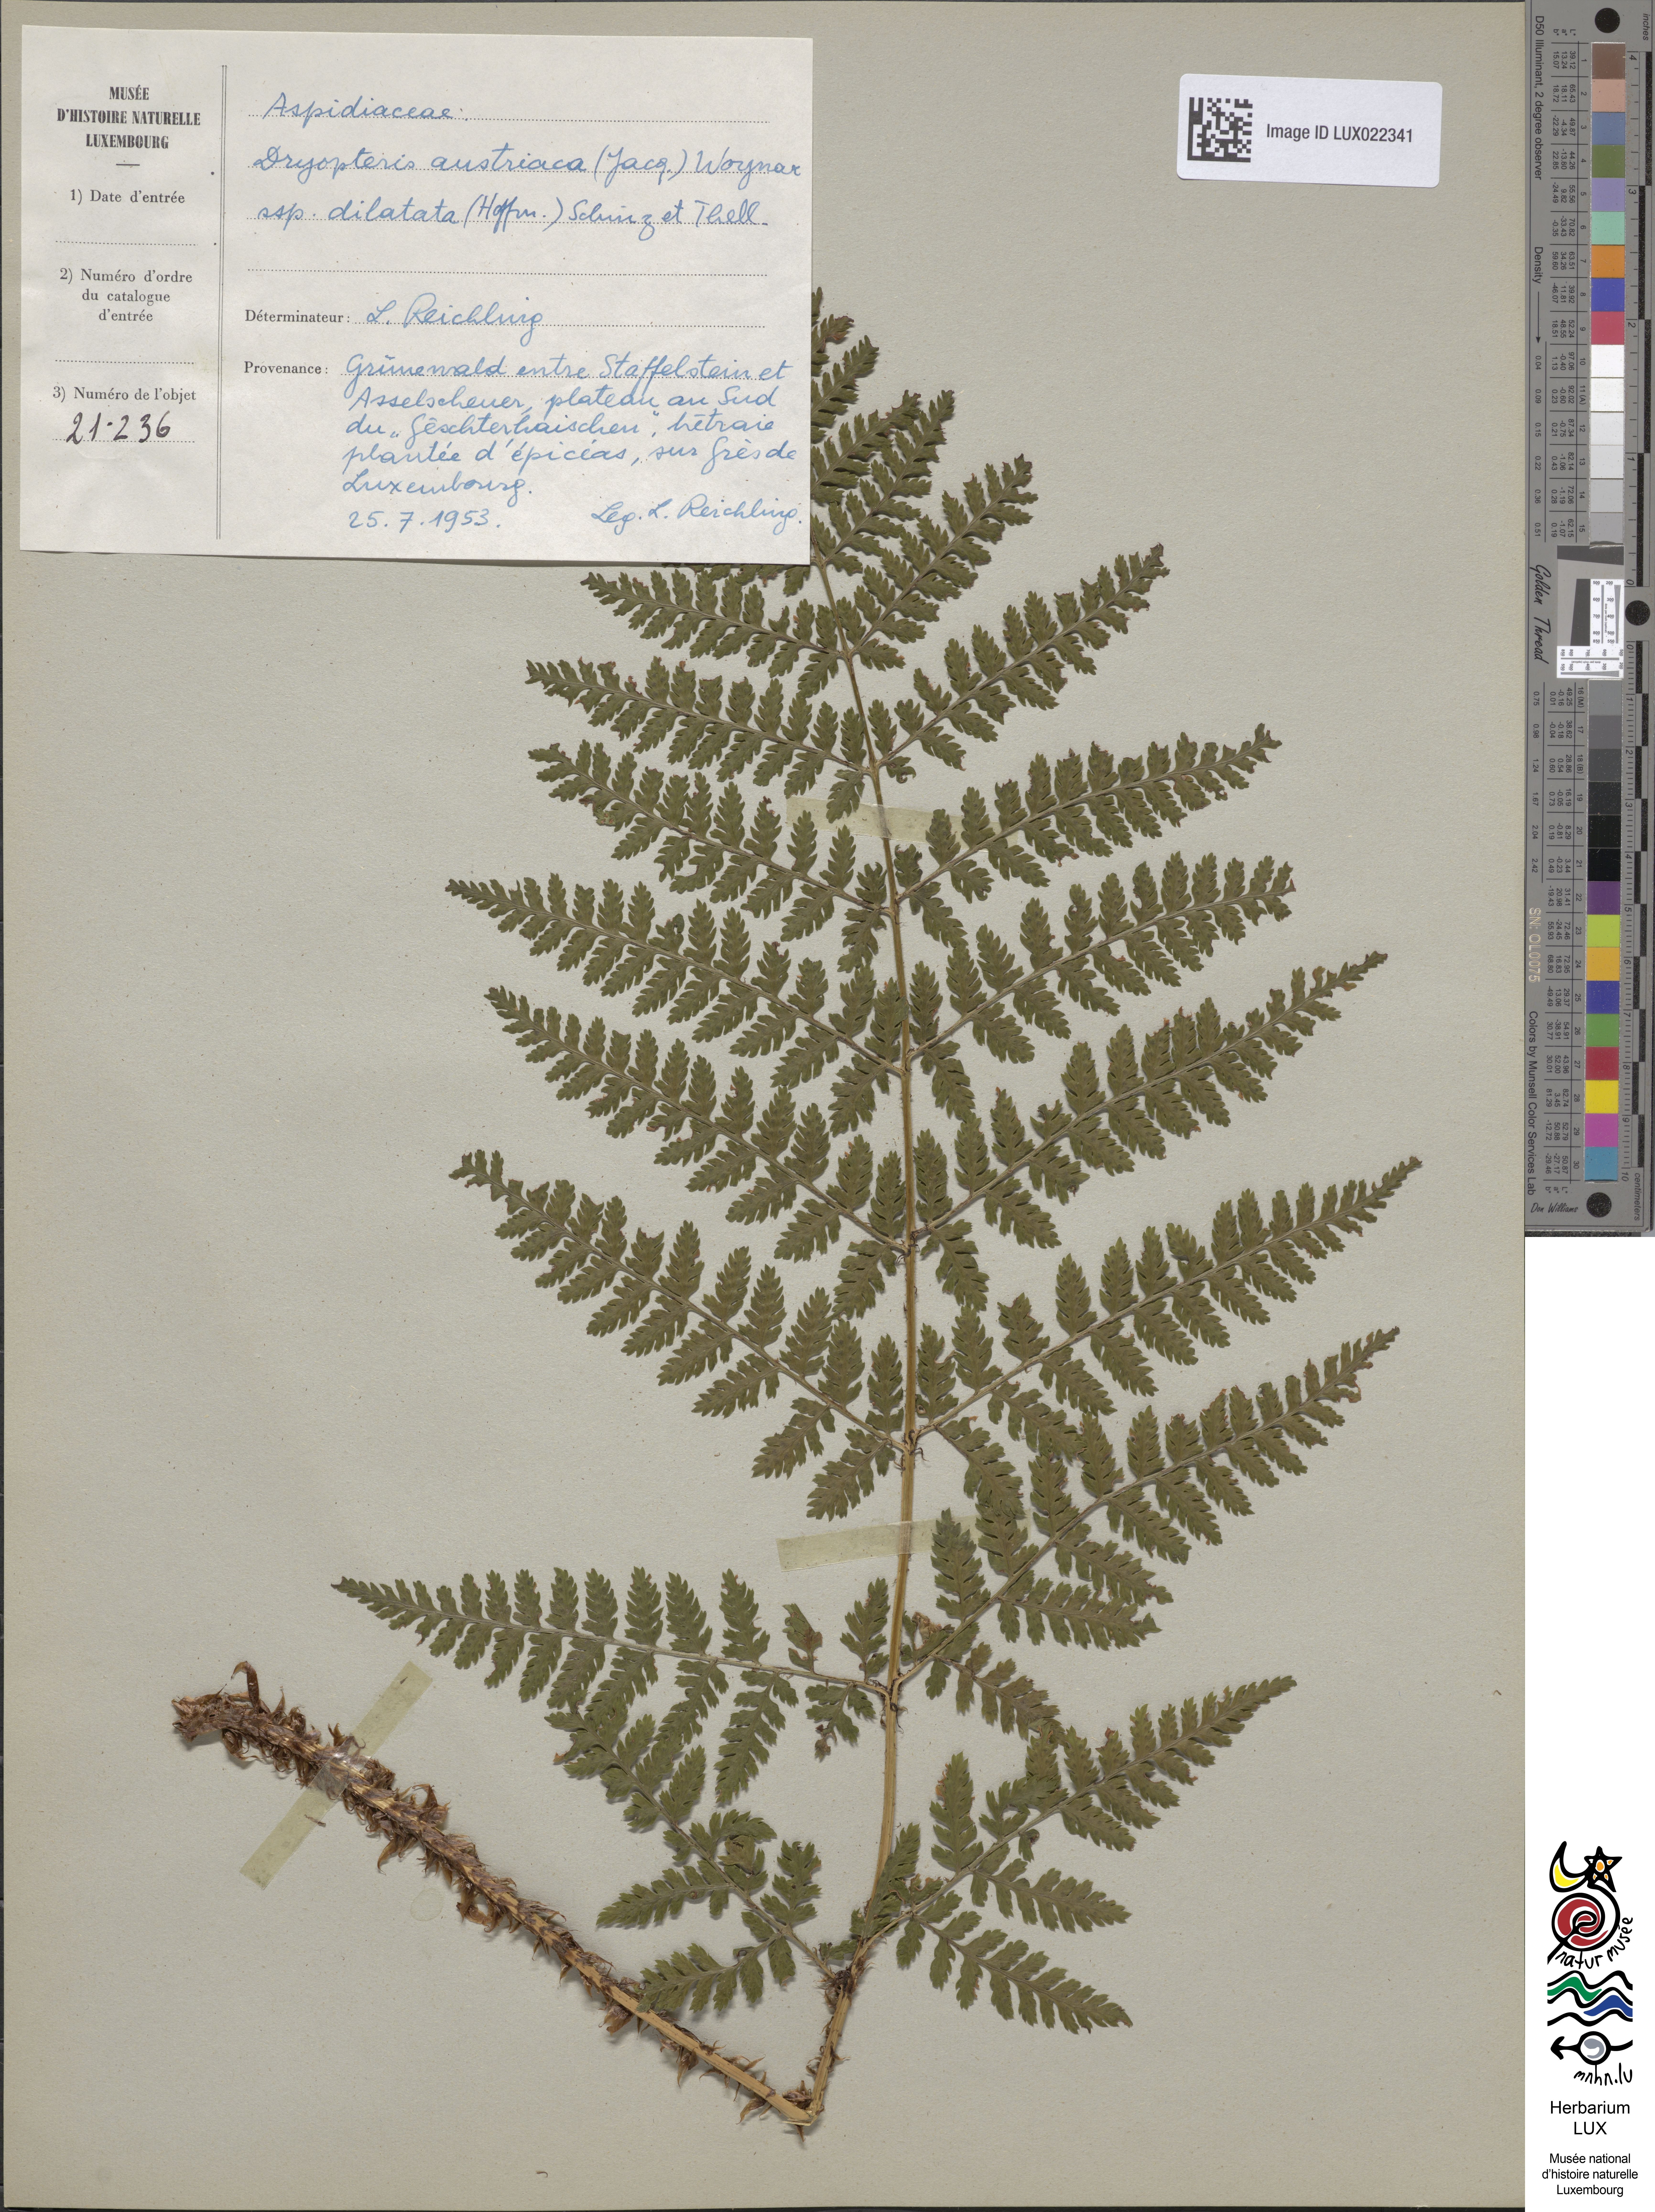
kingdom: Plantae
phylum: Tracheophyta
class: Polypodiopsida
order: Polypodiales
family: Dryopteridaceae
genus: Dryopteris
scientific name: Dryopteris dilatata
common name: Broad buckler-fern
